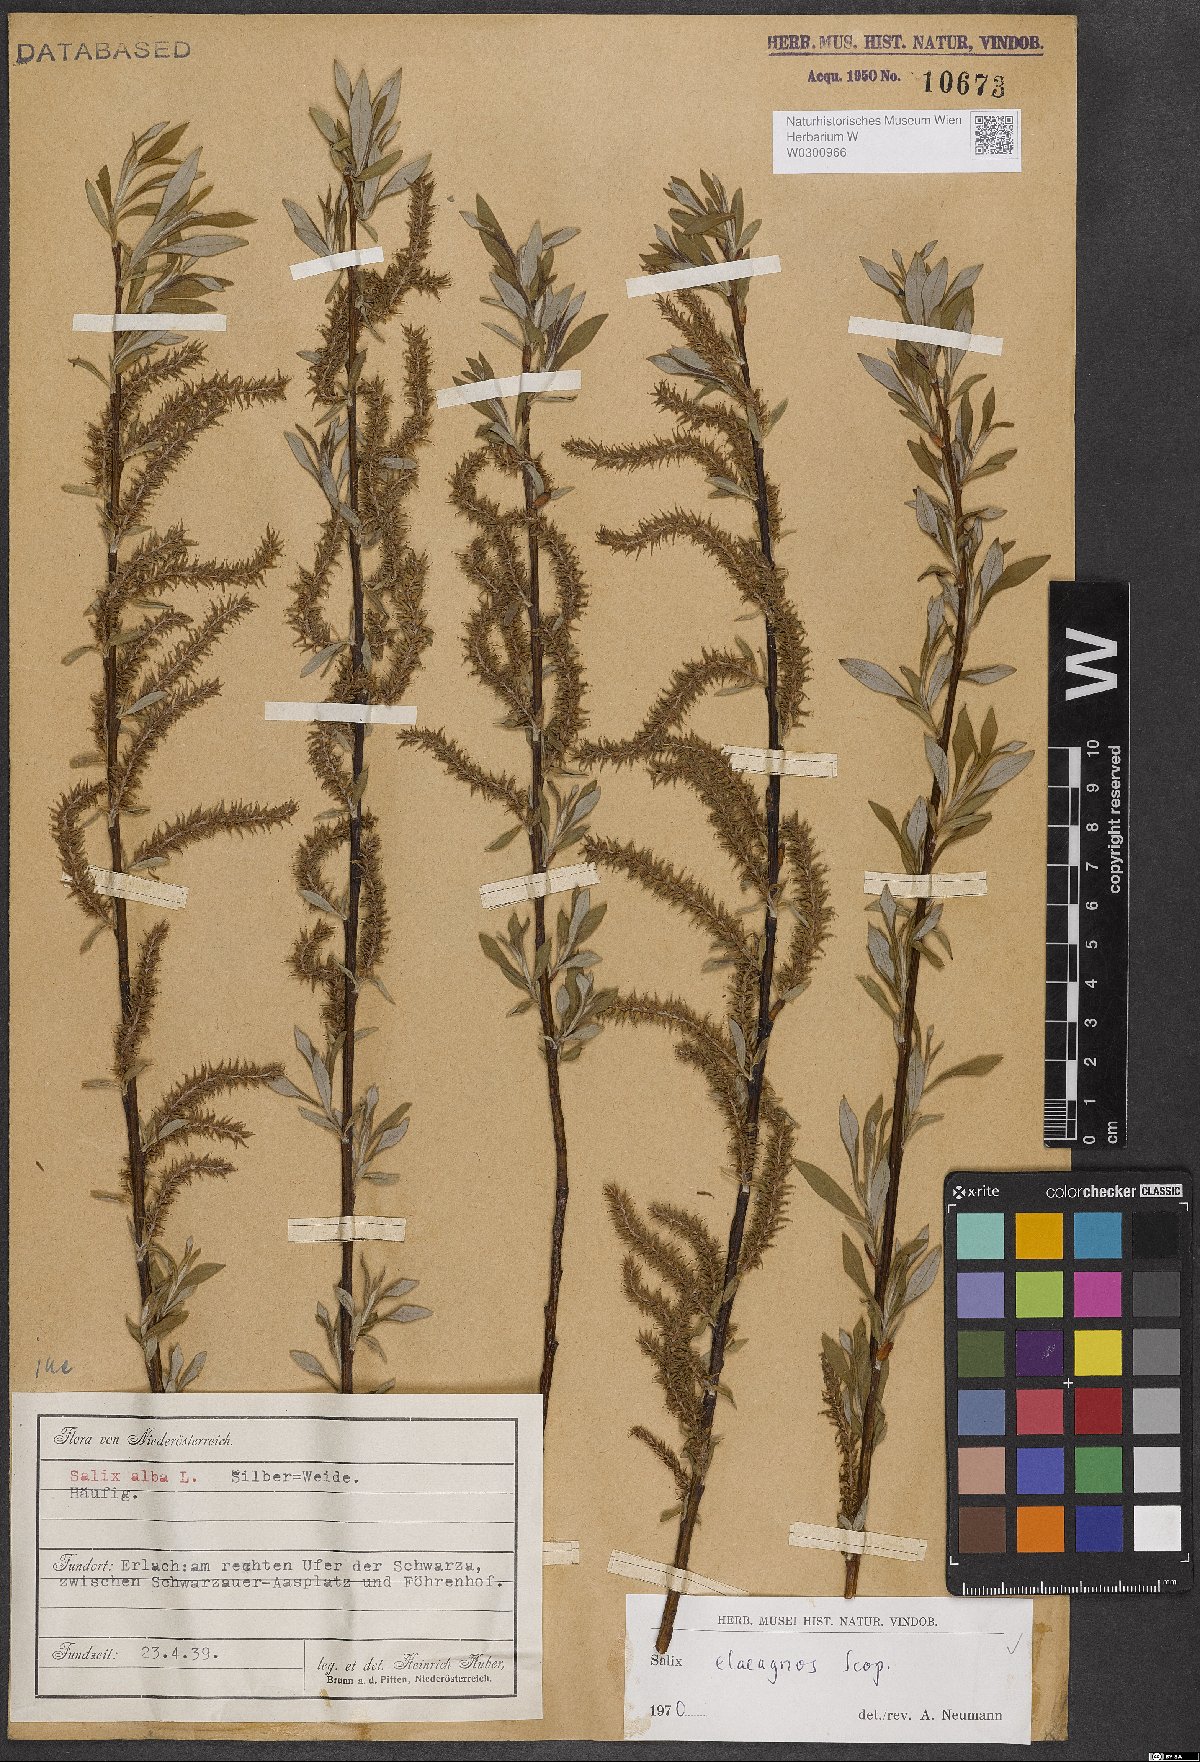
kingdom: Plantae
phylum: Tracheophyta
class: Magnoliopsida
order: Malpighiales
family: Salicaceae
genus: Salix
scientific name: Salix eleagnos
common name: Elaeagnus willow
